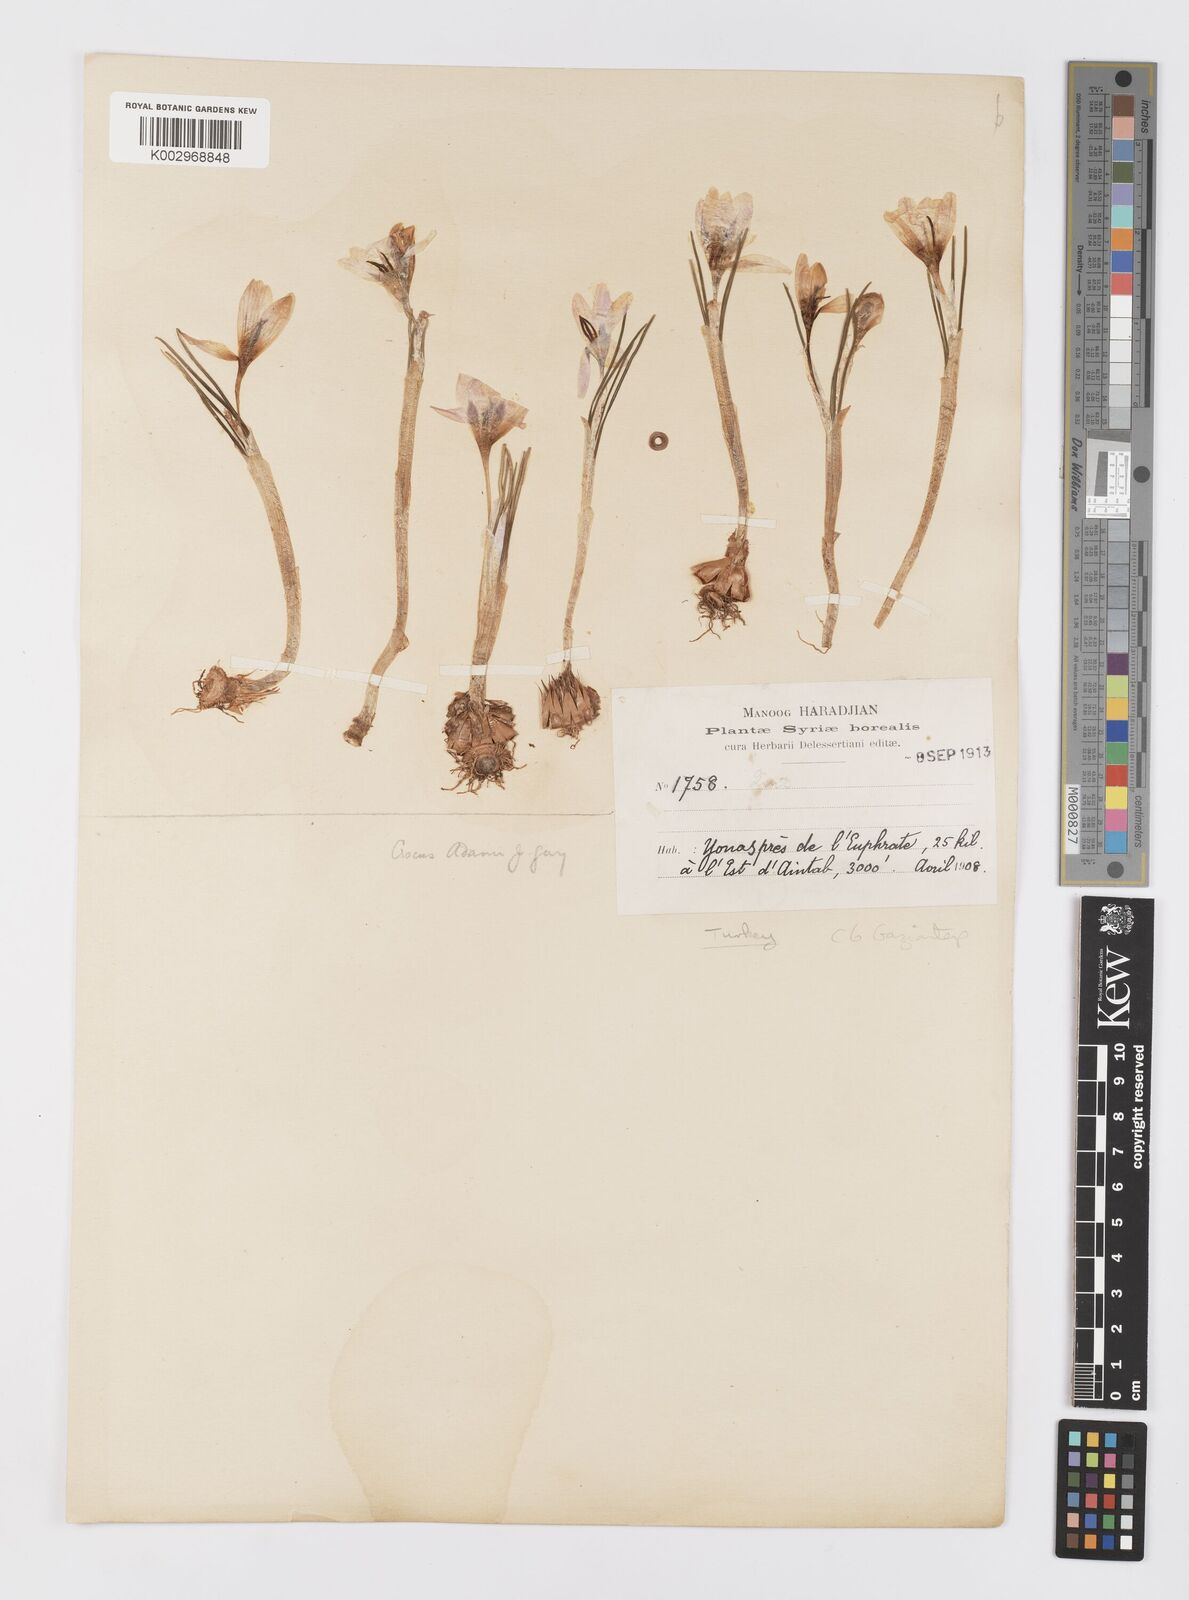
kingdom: Plantae
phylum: Tracheophyta
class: Liliopsida
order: Asparagales
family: Iridaceae
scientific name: Iridaceae
